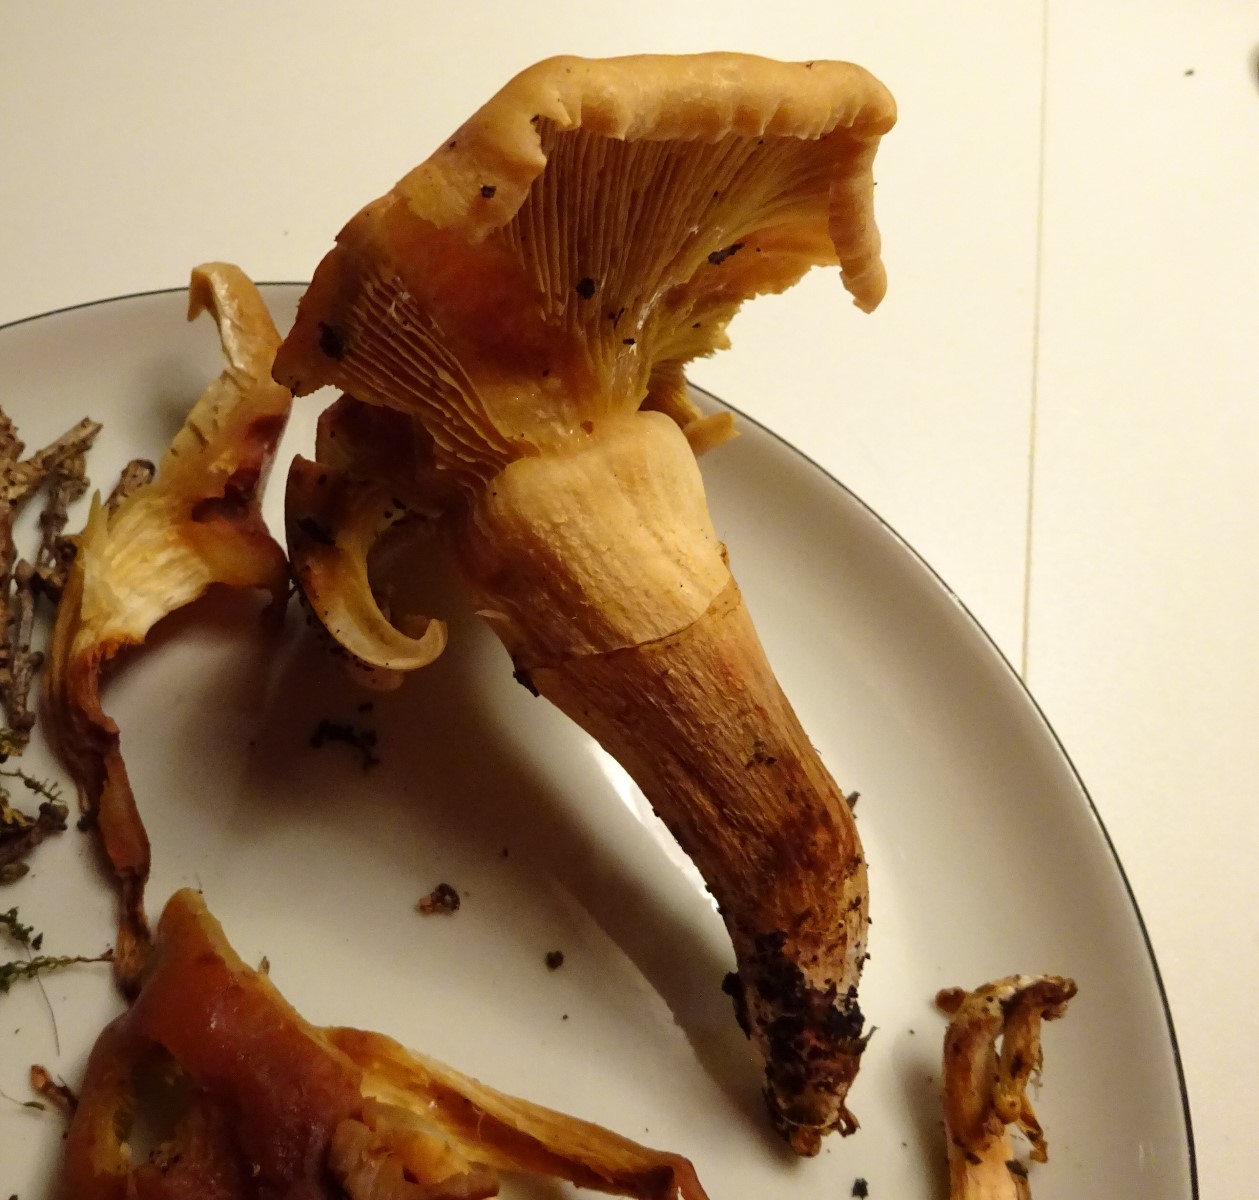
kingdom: Fungi
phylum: Basidiomycota
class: Agaricomycetes
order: Agaricales
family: Strophariaceae
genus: Hypholoma
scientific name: Hypholoma fasciculare
